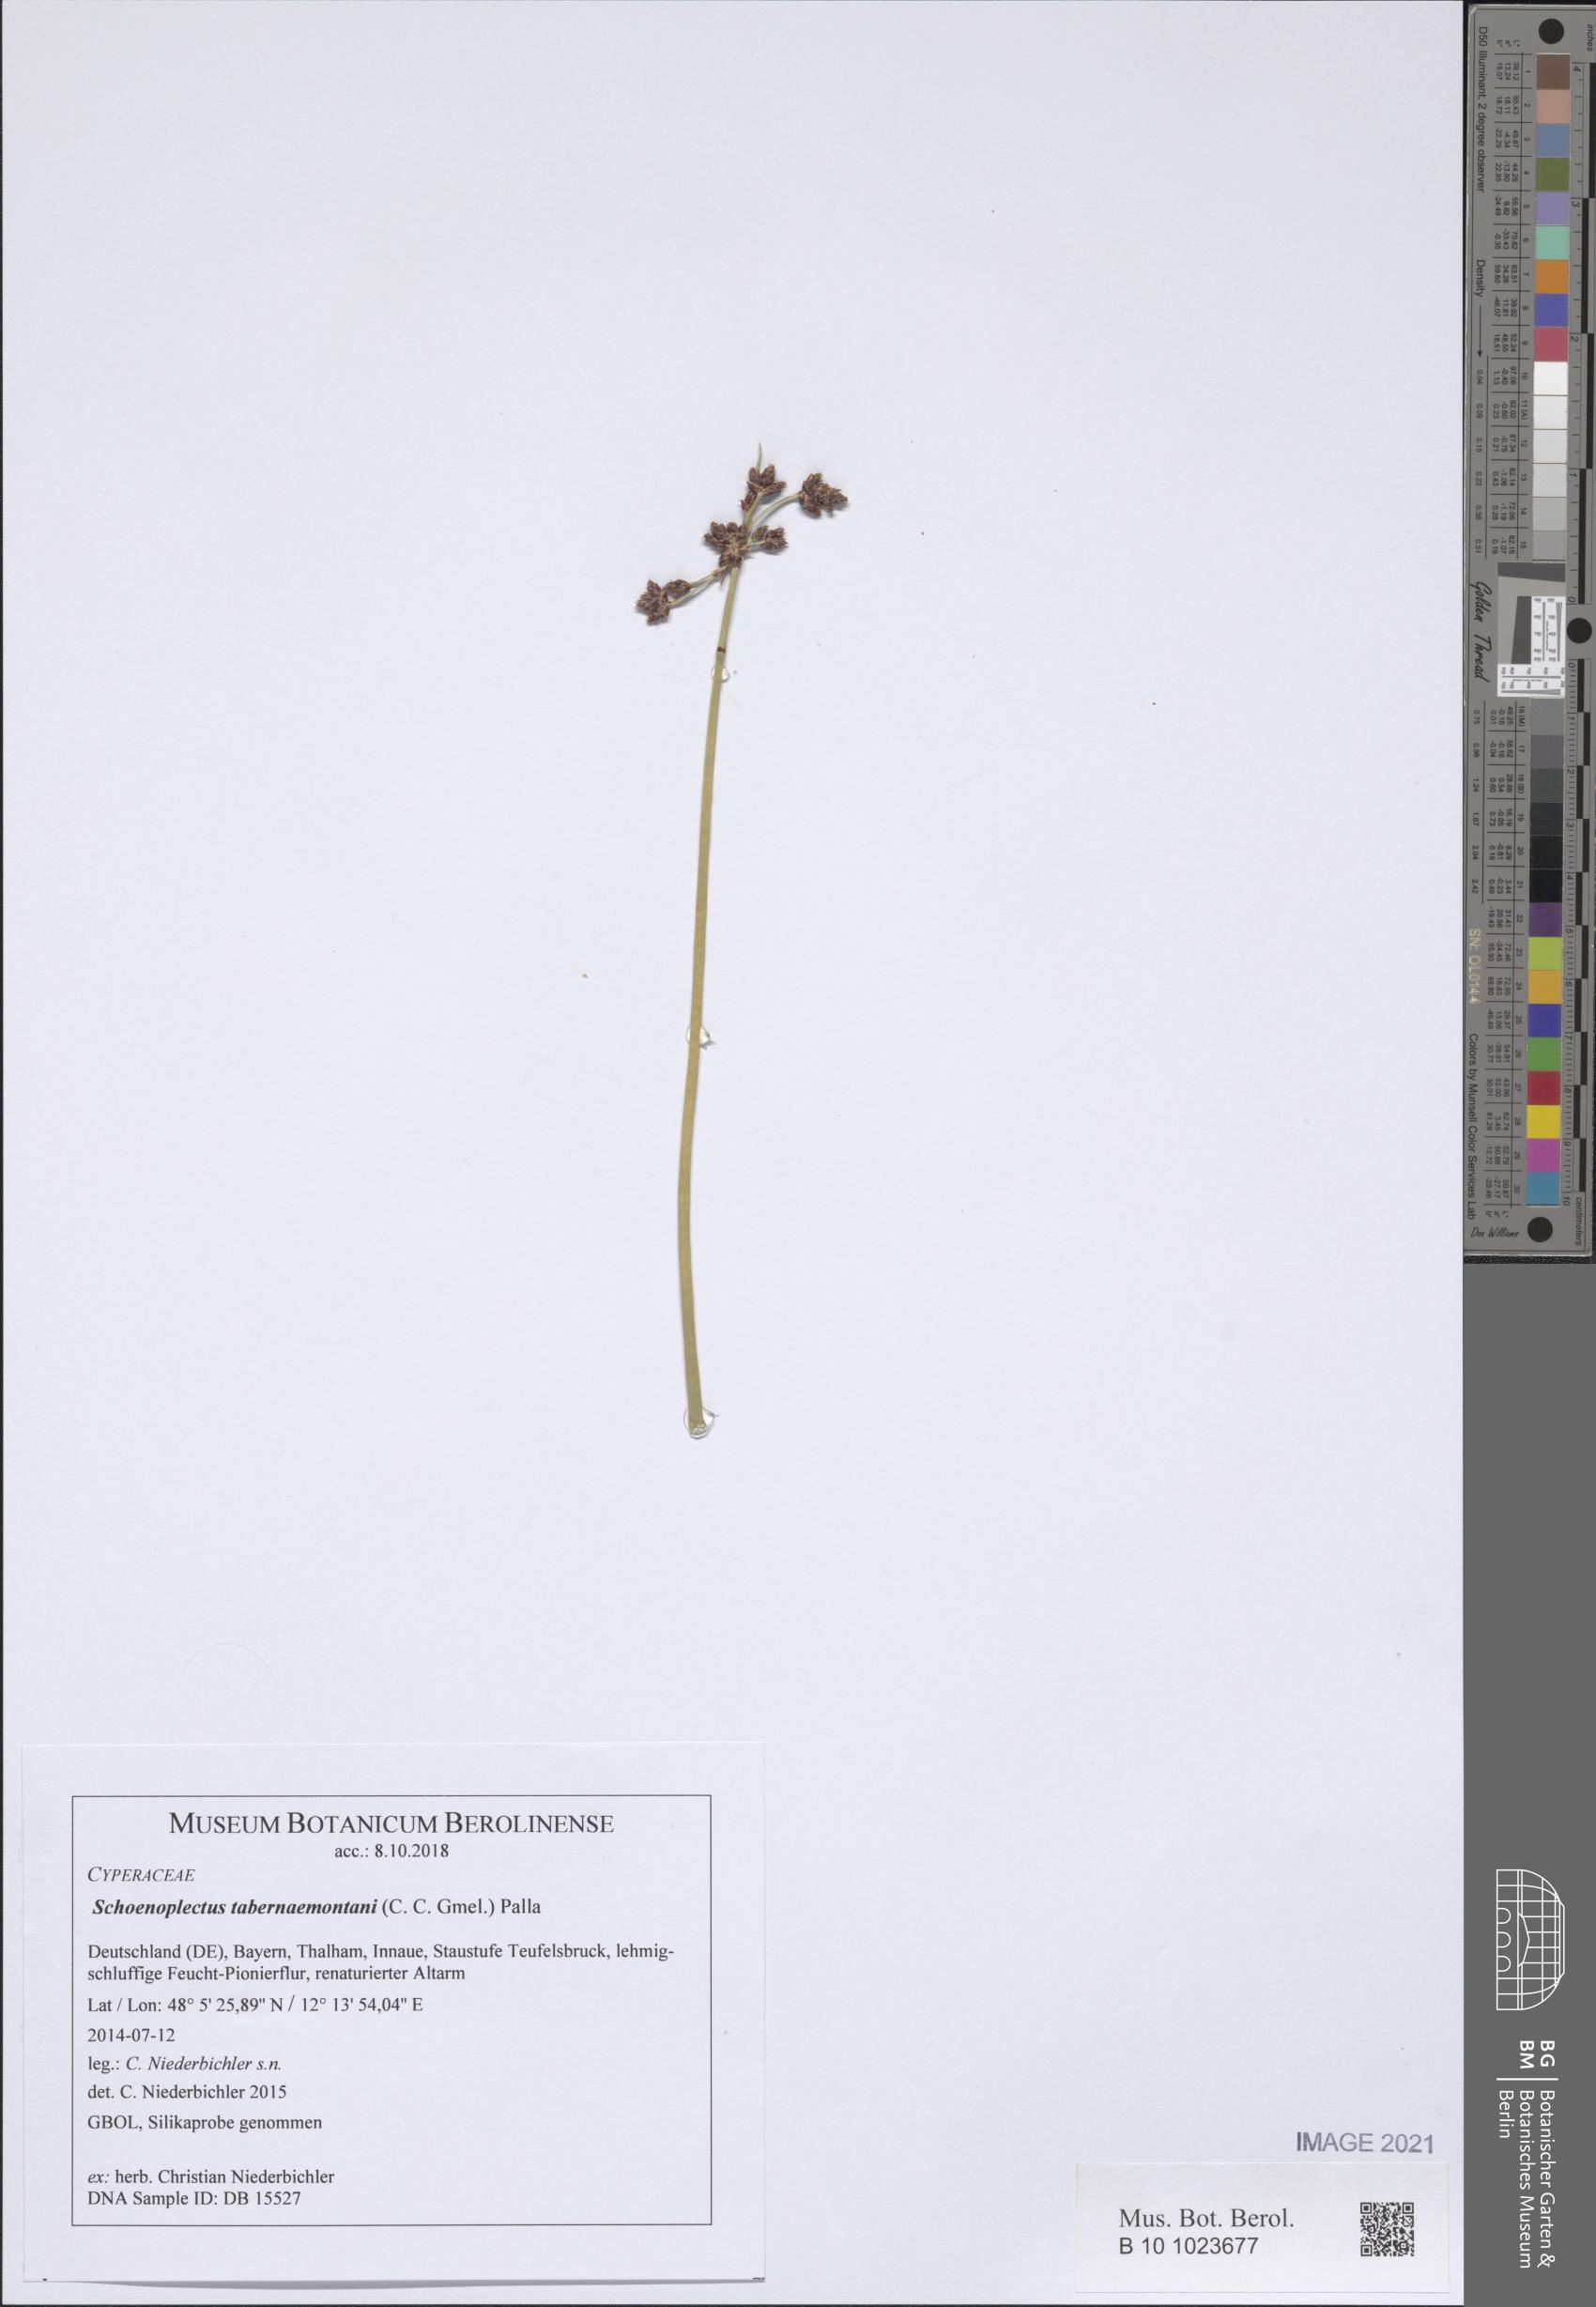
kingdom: Plantae
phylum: Tracheophyta
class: Liliopsida
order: Poales
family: Cyperaceae
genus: Schoenoplectus
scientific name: Schoenoplectus tabernaemontani
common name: Grey club-rush
